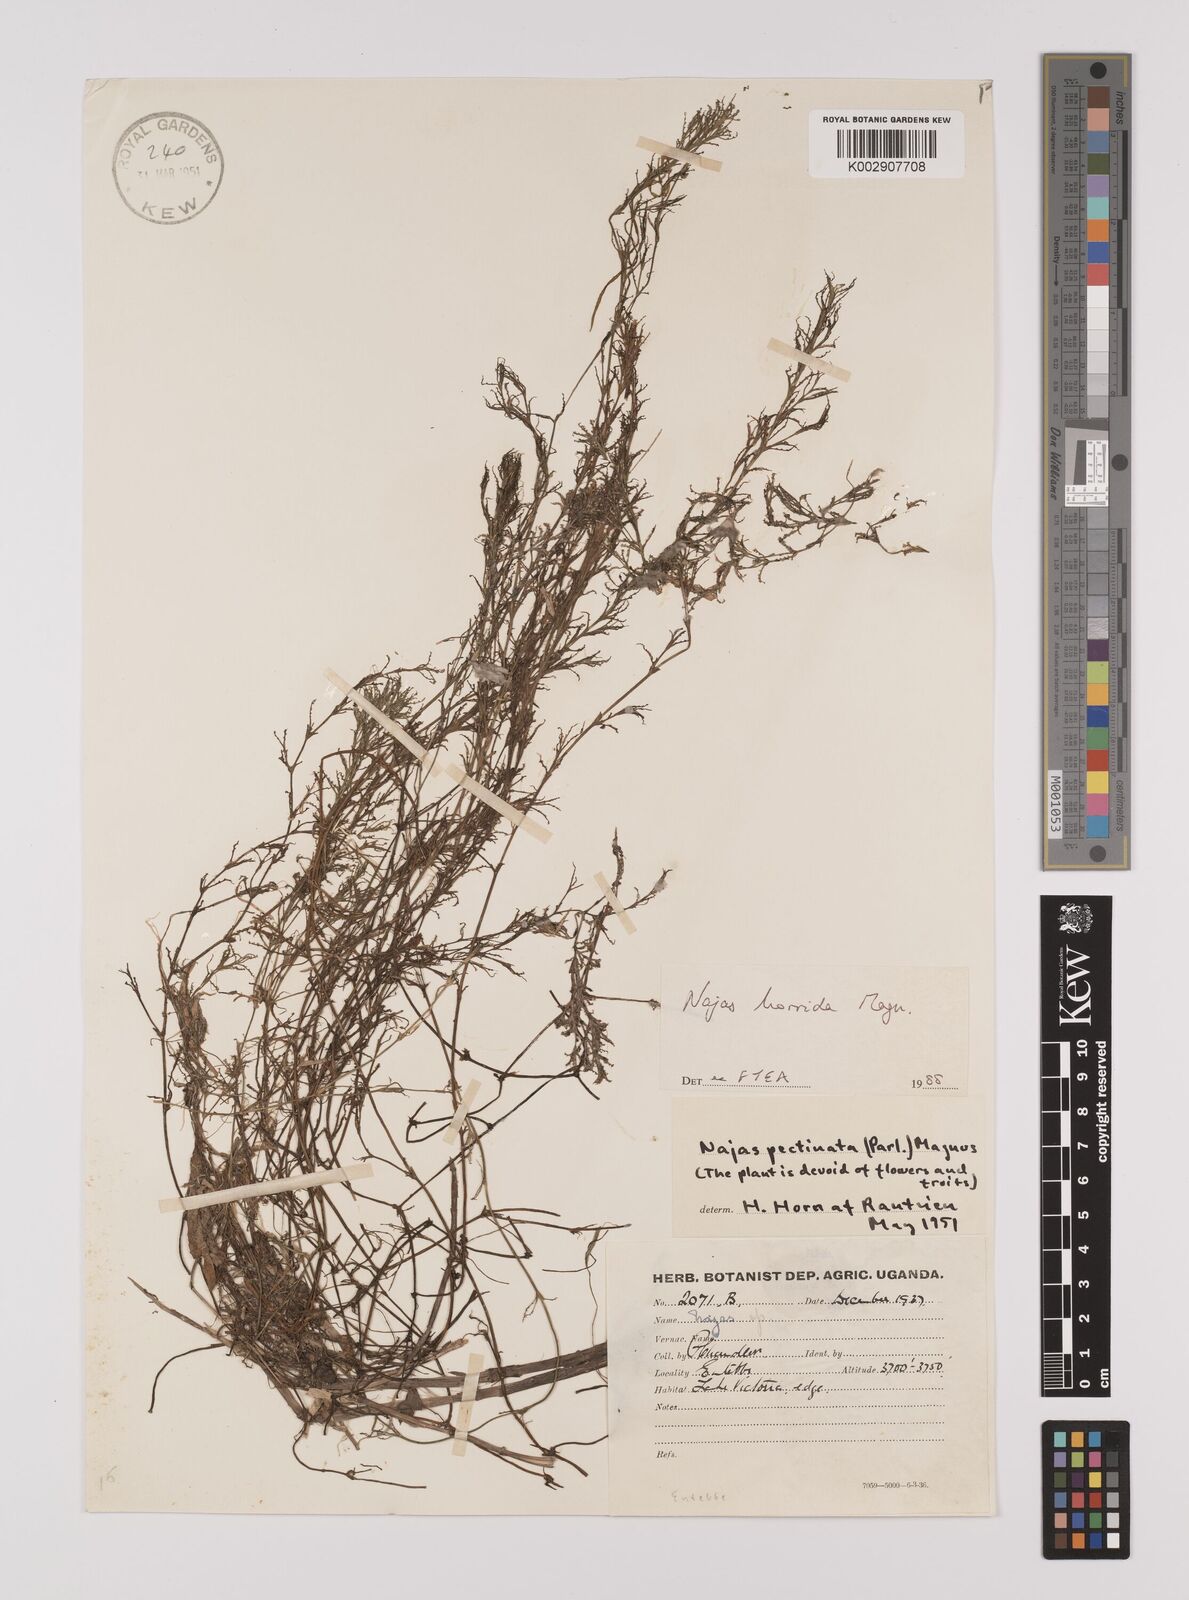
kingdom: Plantae
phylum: Tracheophyta
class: Liliopsida
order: Alismatales
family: Hydrocharitaceae
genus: Najas
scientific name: Najas horrida
